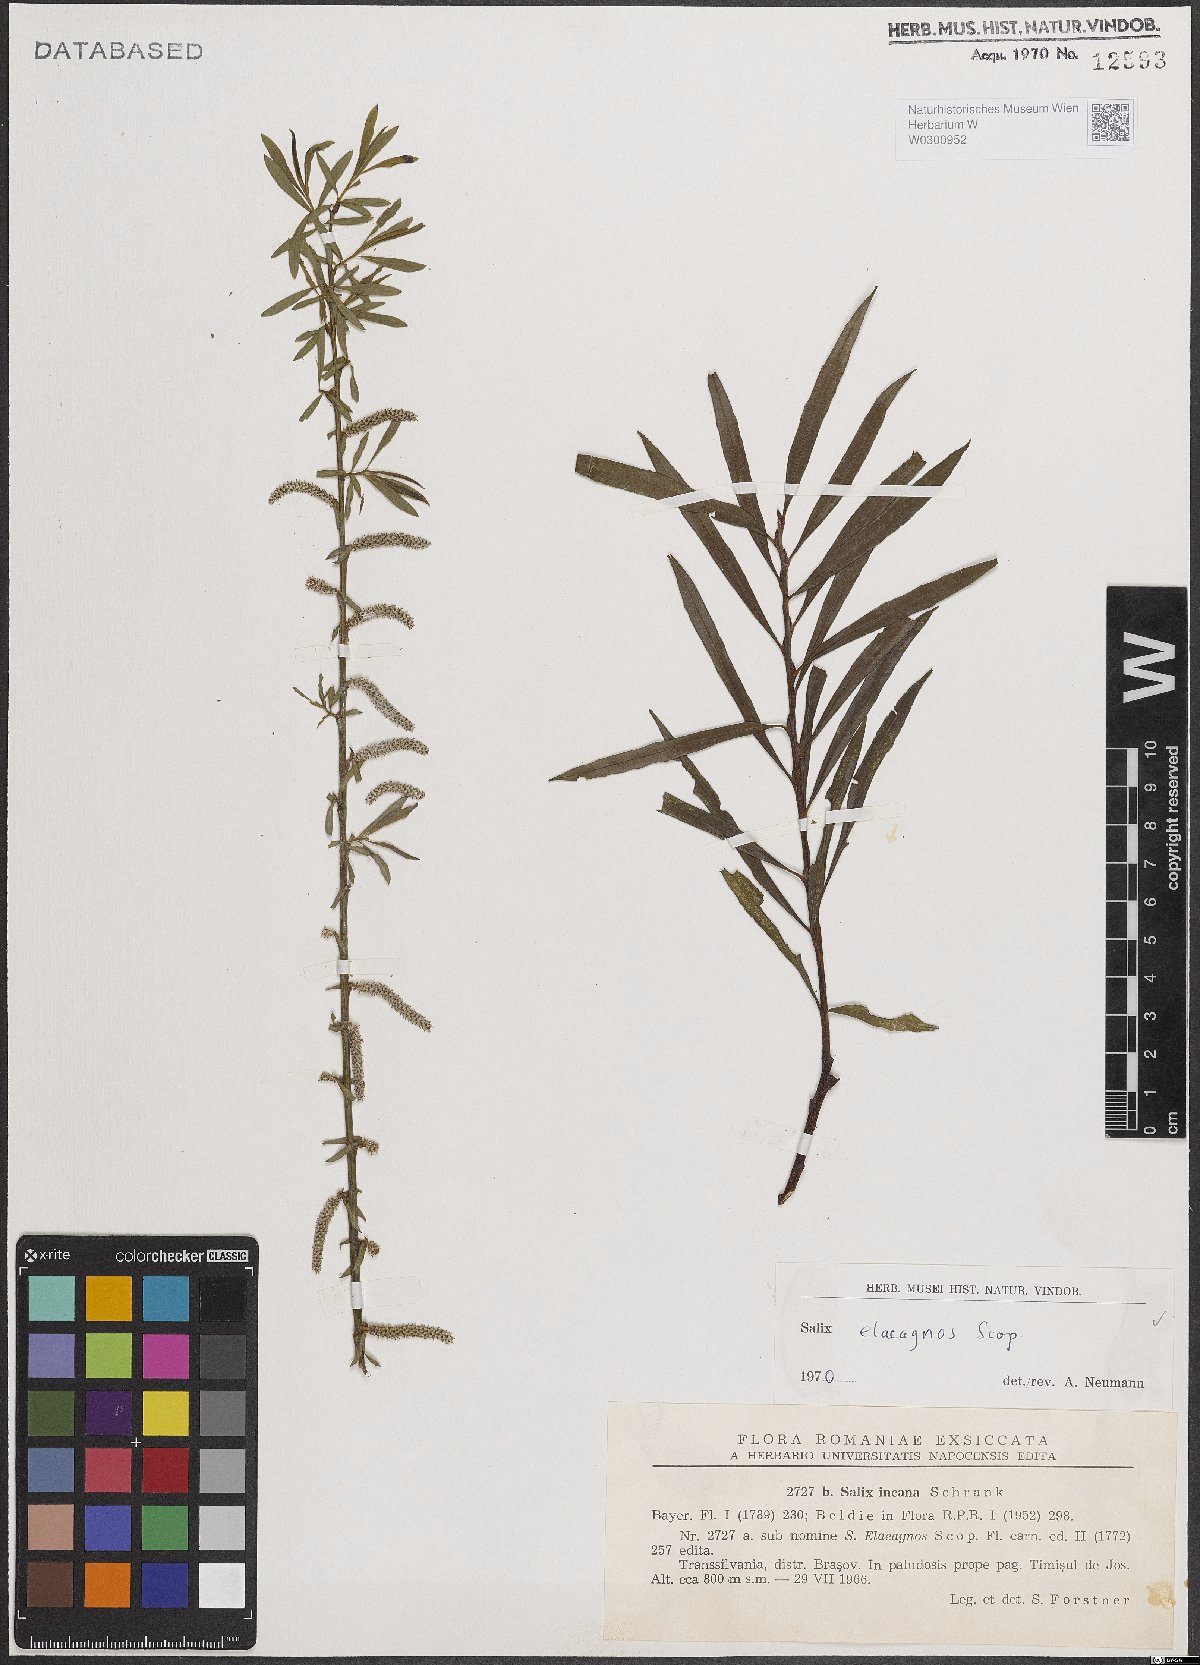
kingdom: Plantae
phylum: Tracheophyta
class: Magnoliopsida
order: Malpighiales
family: Salicaceae
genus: Salix
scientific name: Salix eleagnos
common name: Elaeagnus willow
